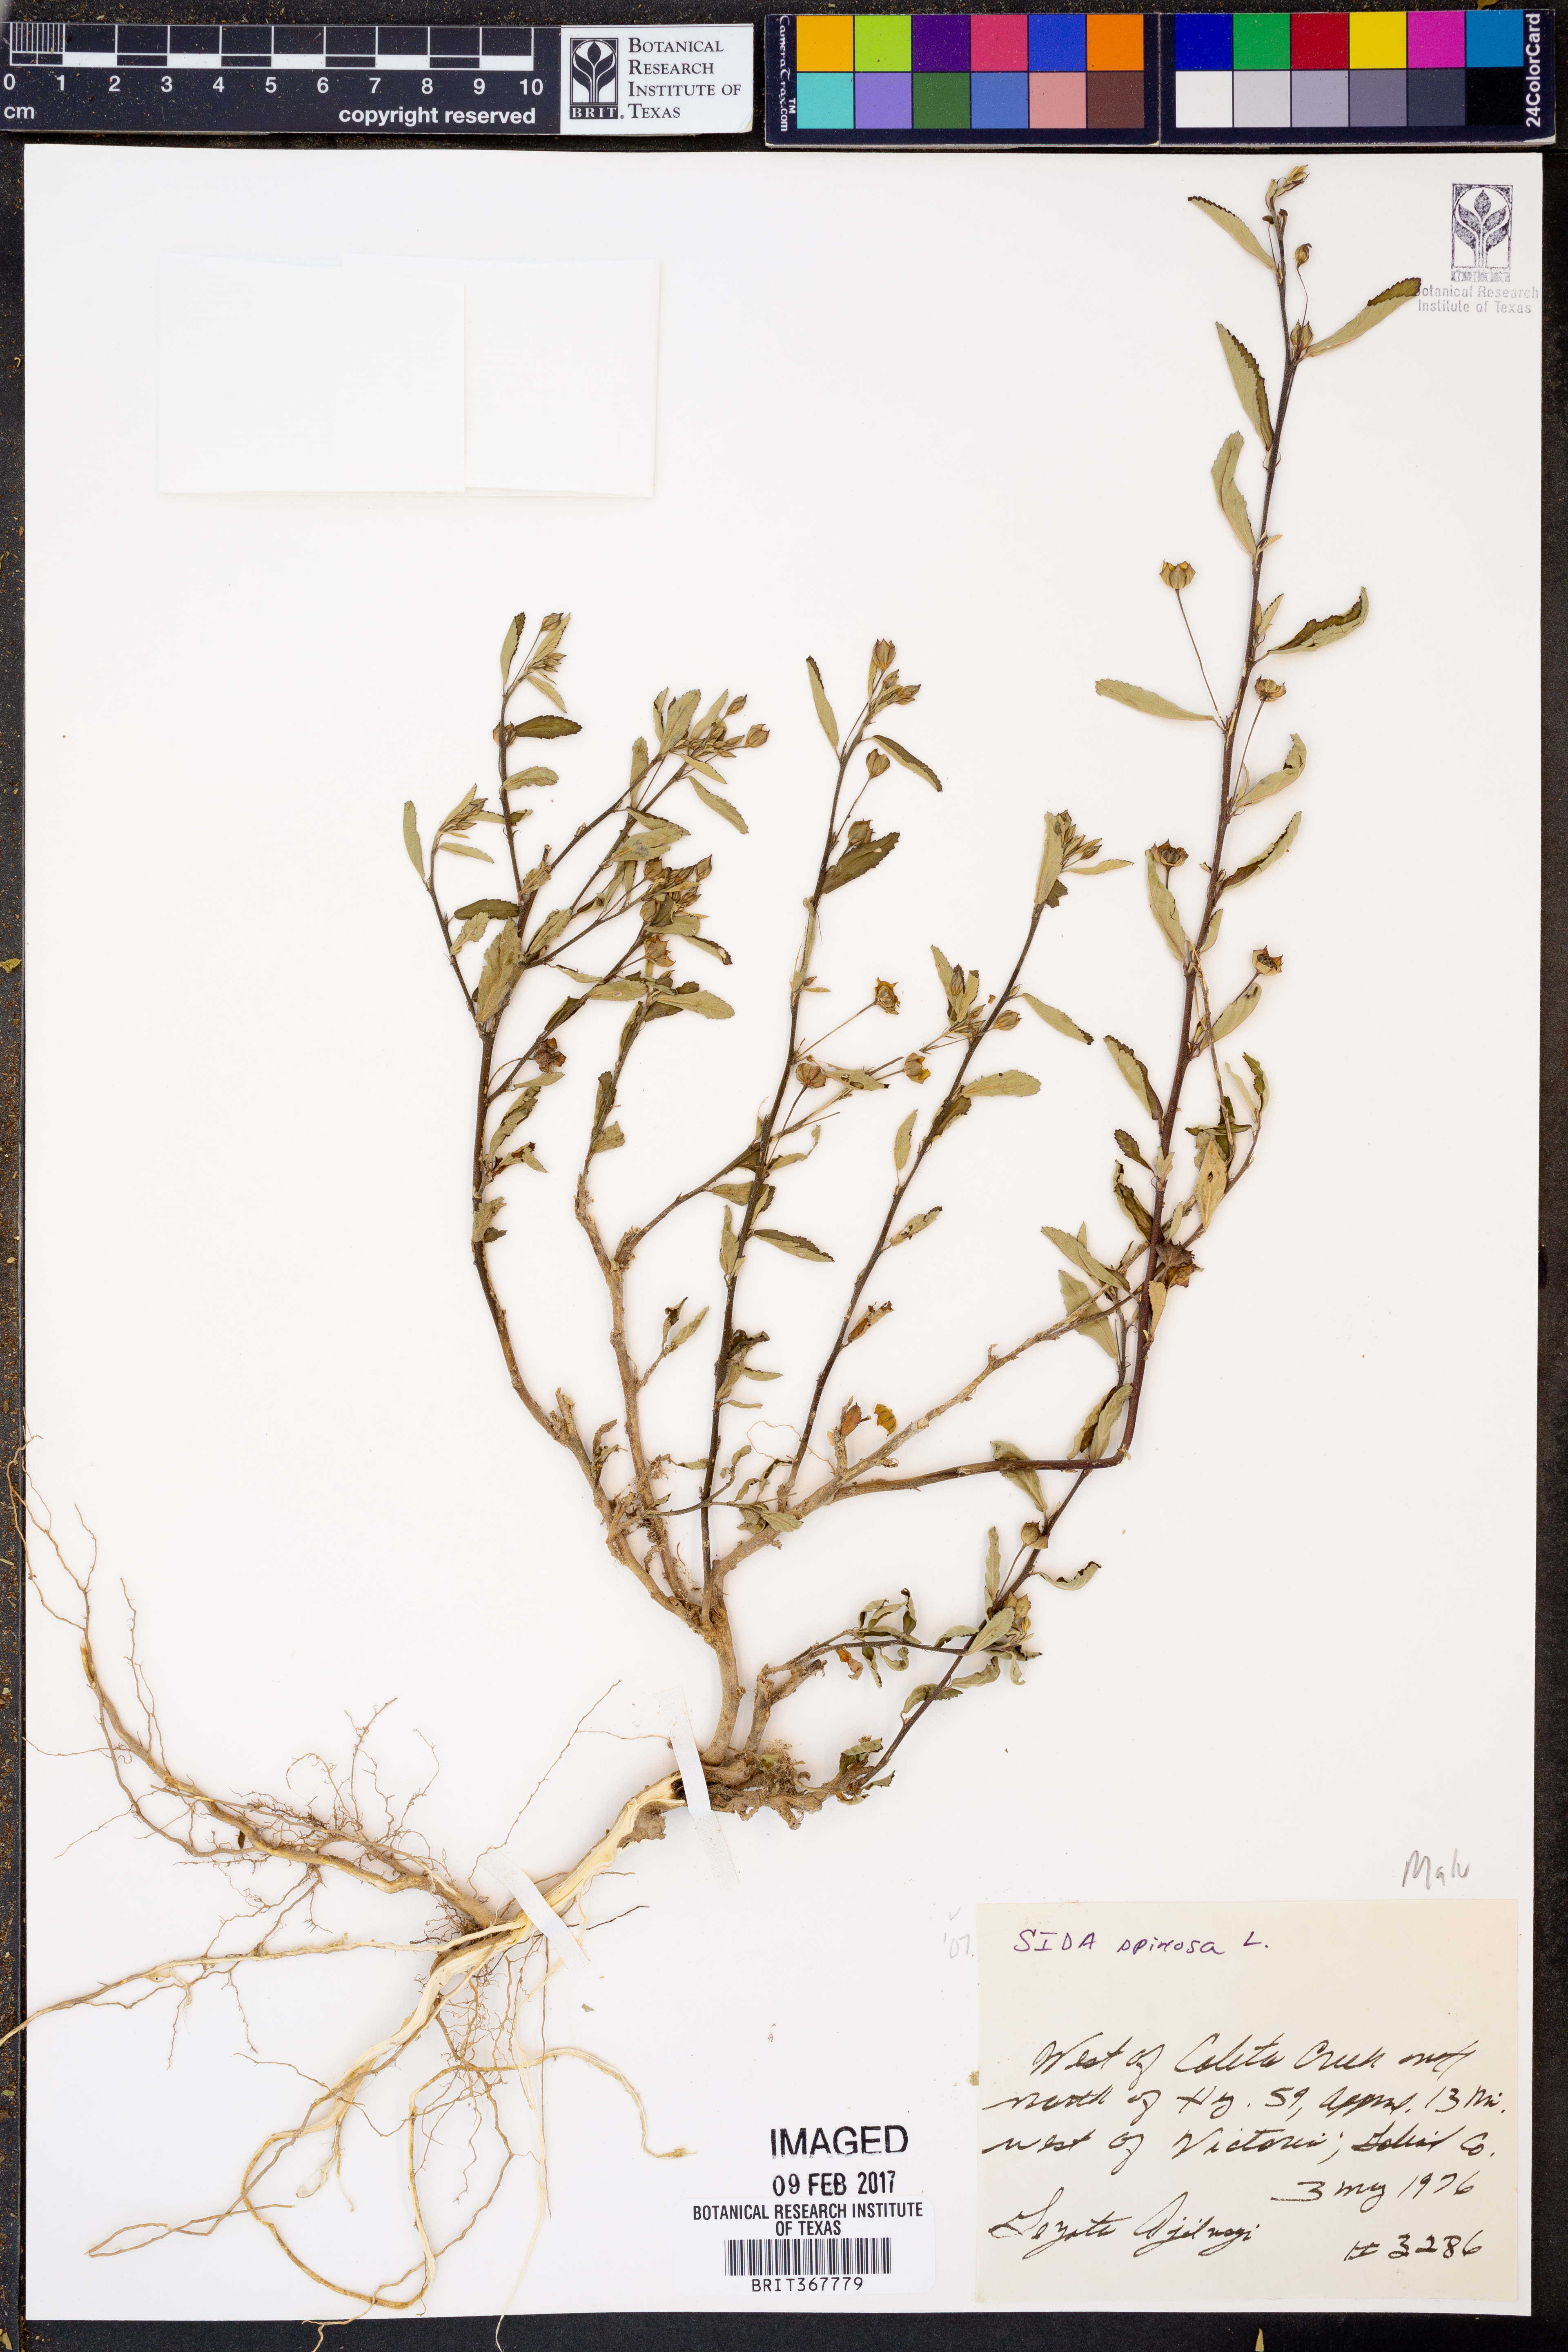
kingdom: Plantae
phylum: Tracheophyta
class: Magnoliopsida
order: Malvales
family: Malvaceae
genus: Sida
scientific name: Sida spinosa
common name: Prickly fanpetals
